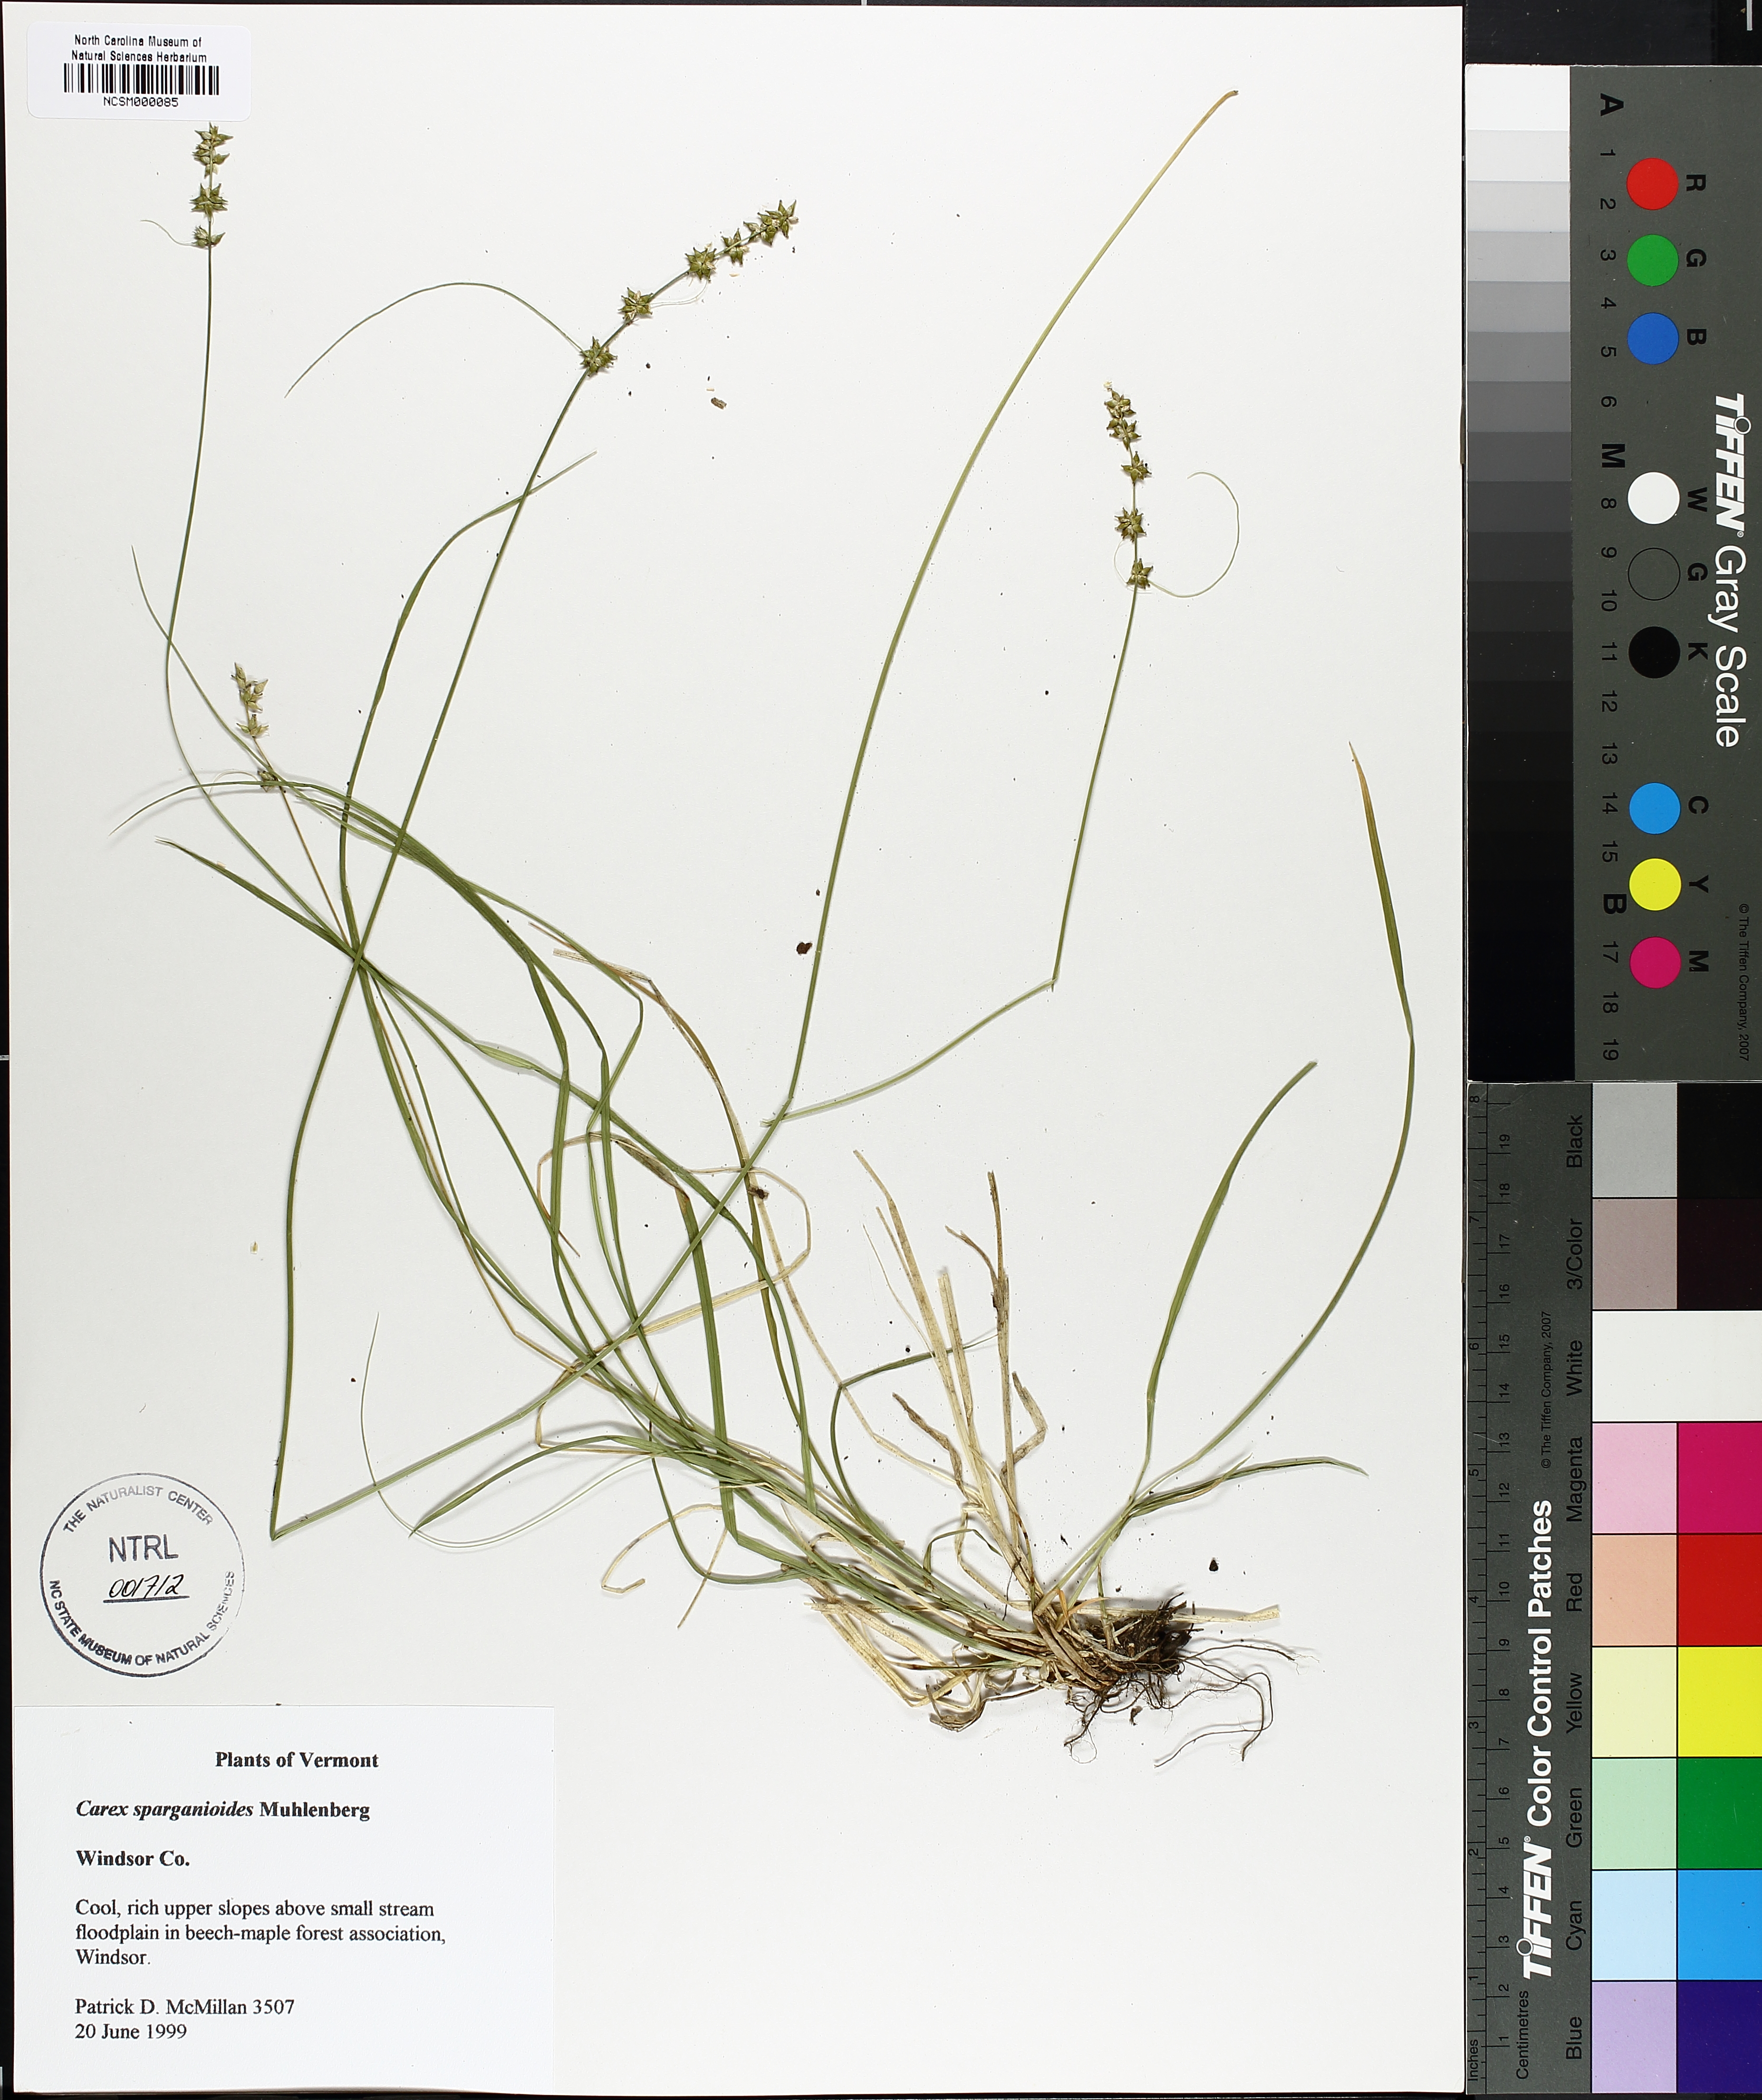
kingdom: Plantae
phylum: Tracheophyta
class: Liliopsida
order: Poales
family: Cyperaceae
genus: Carex
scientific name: Carex sparganioides
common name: Burreed sedge
